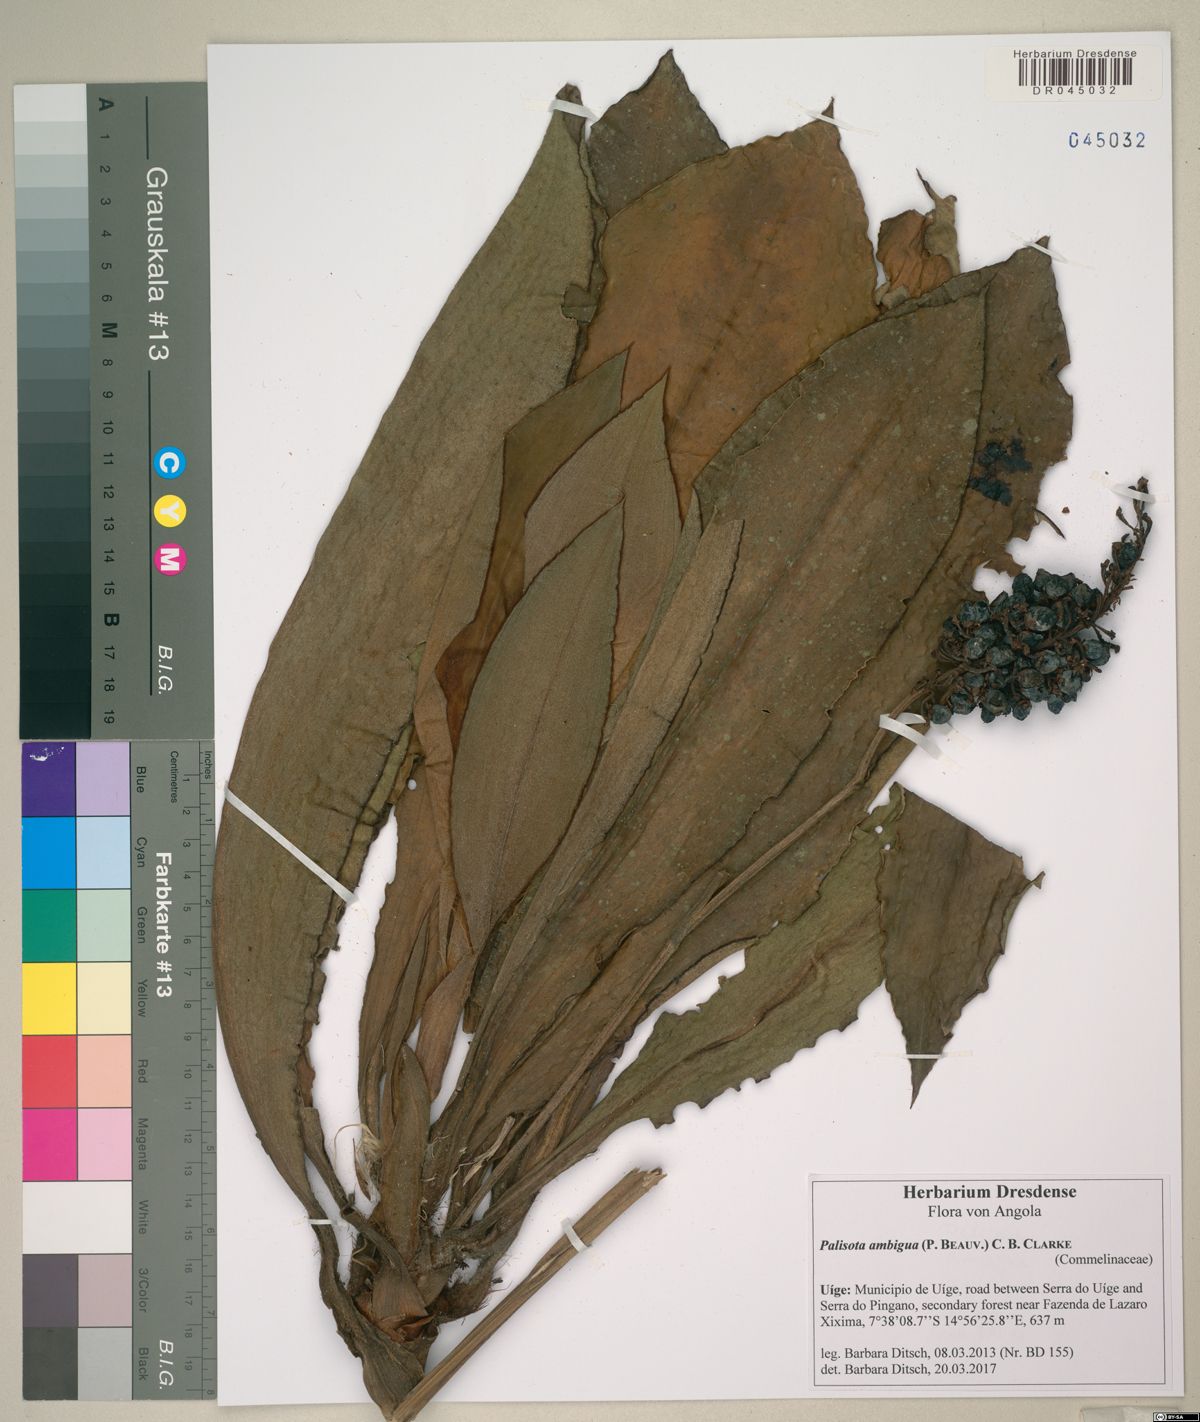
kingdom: Plantae
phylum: Tracheophyta
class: Liliopsida
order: Commelinales
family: Commelinaceae
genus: Palisota
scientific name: Palisota ambigua
